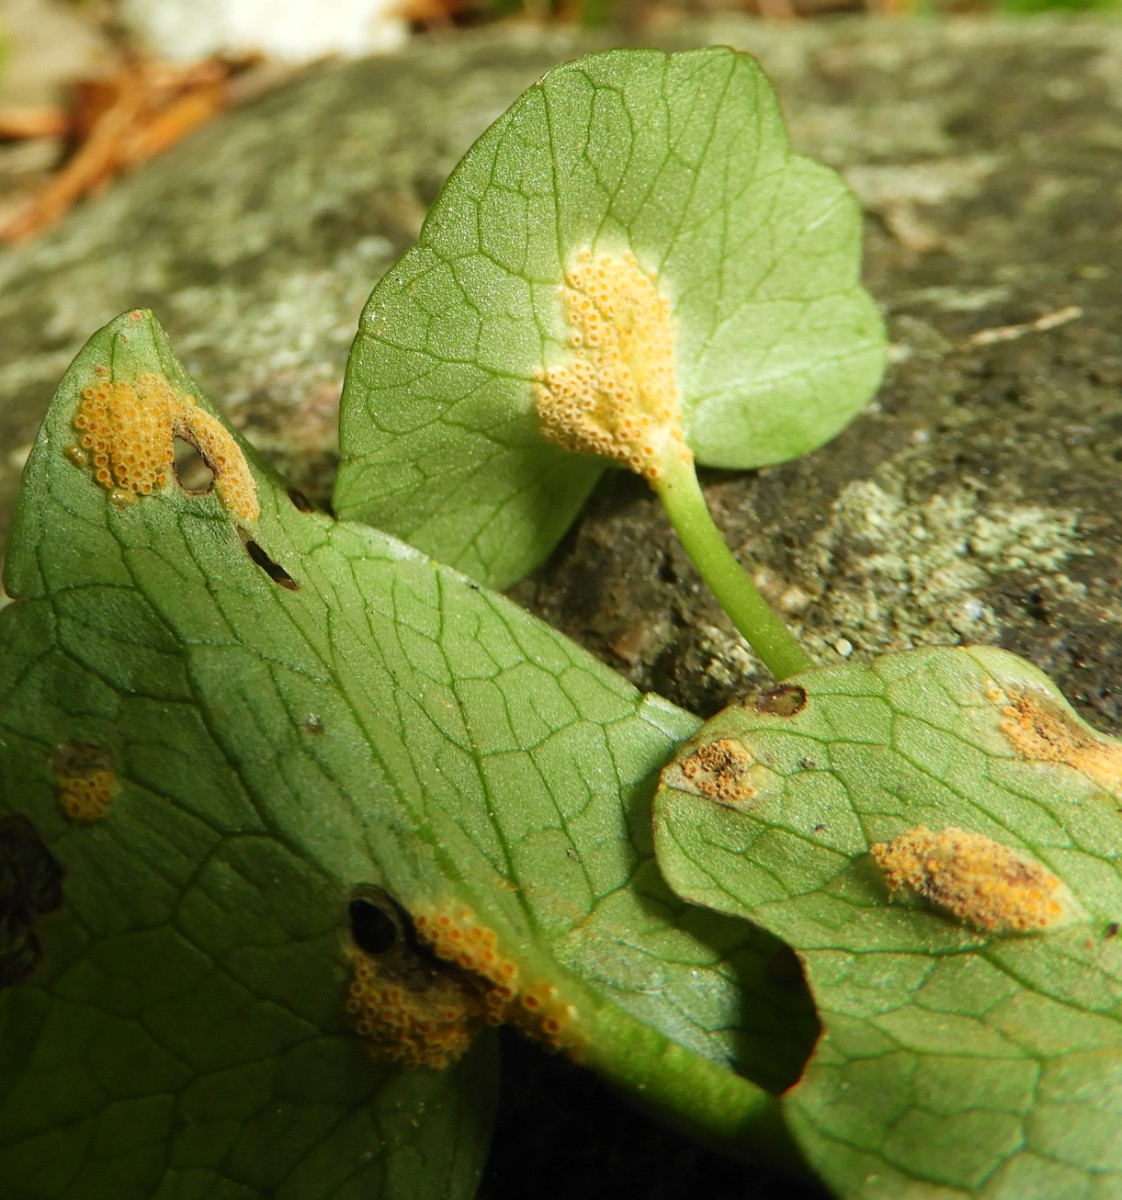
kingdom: Fungi
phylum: Basidiomycota
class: Pucciniomycetes
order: Pucciniales
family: Pucciniaceae
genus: Uromyces
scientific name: Uromyces dactylidis
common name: ranunkel-encellerust
